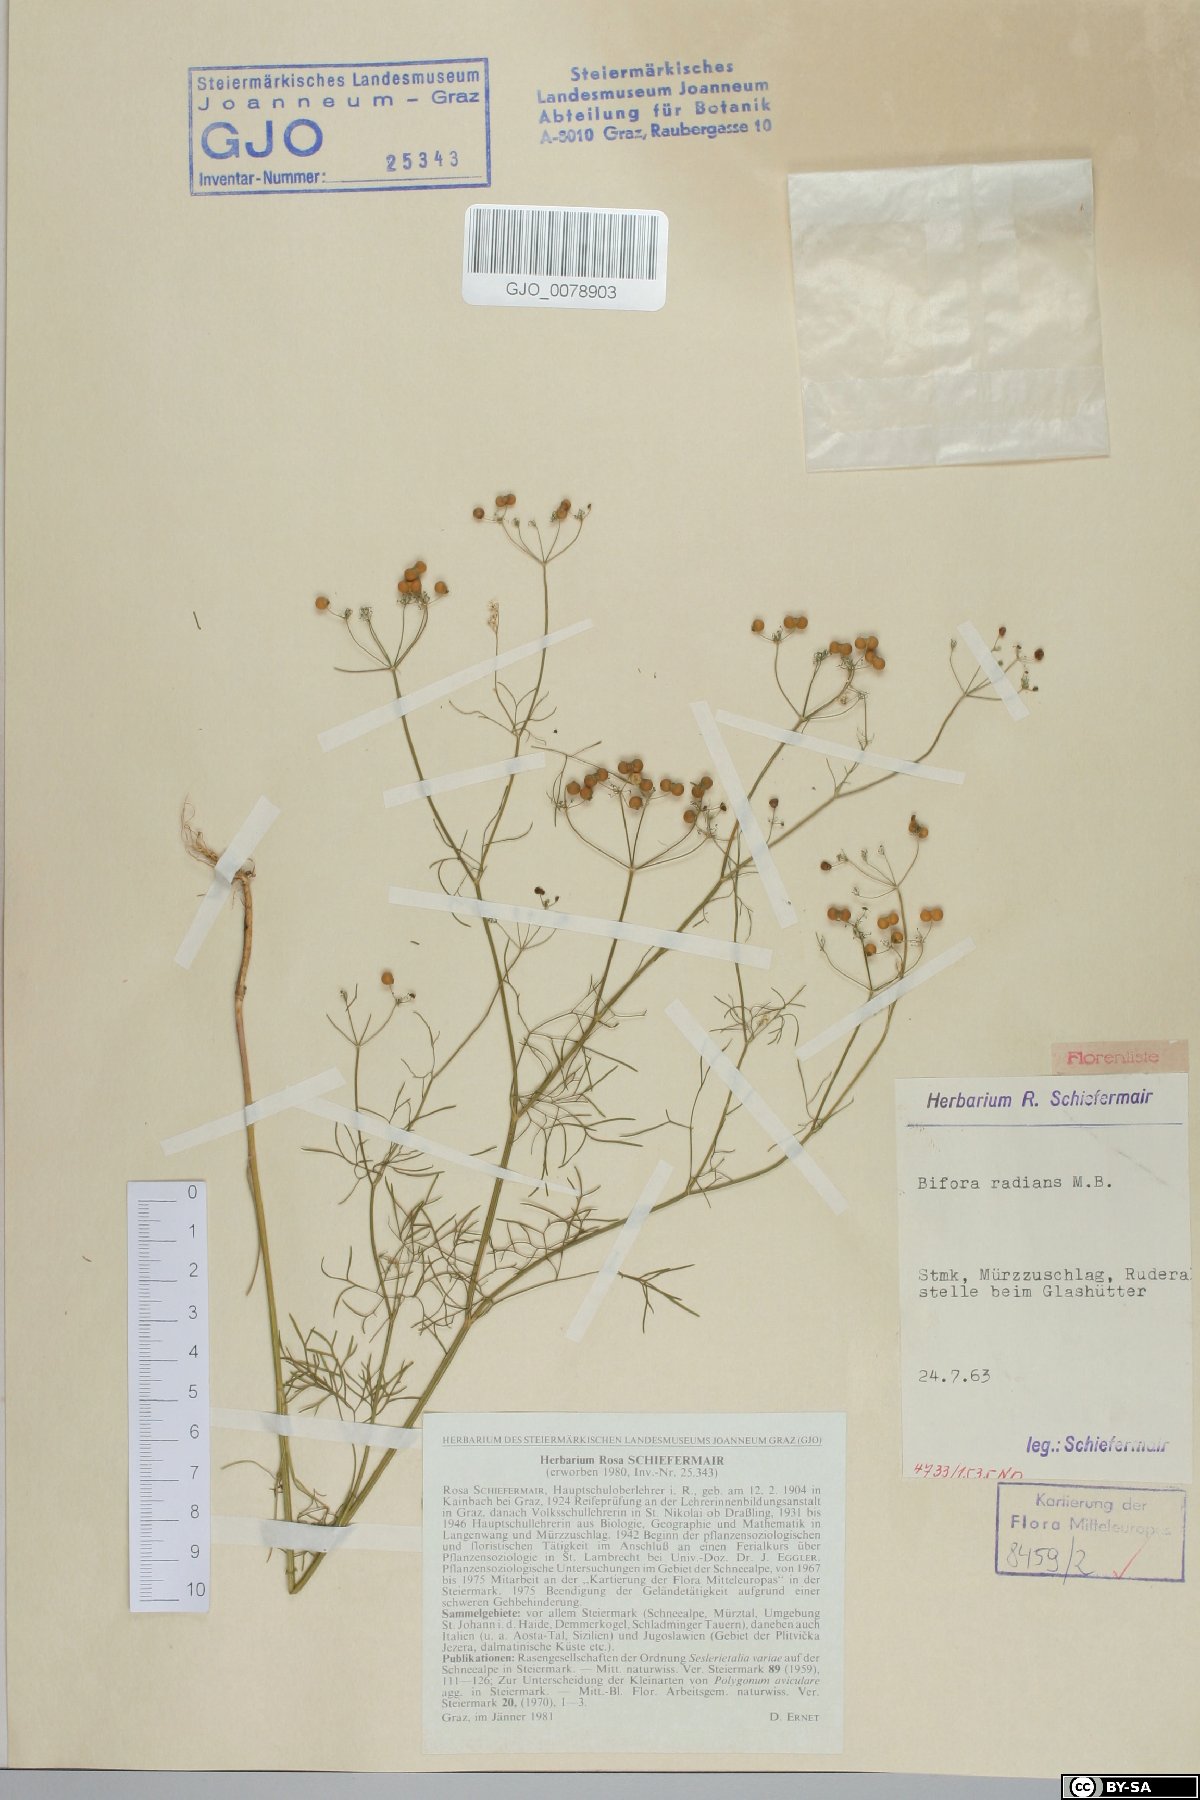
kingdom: Plantae
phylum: Tracheophyta
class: Magnoliopsida
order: Apiales
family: Apiaceae
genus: Bifora
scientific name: Bifora radians
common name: Wild bishop
